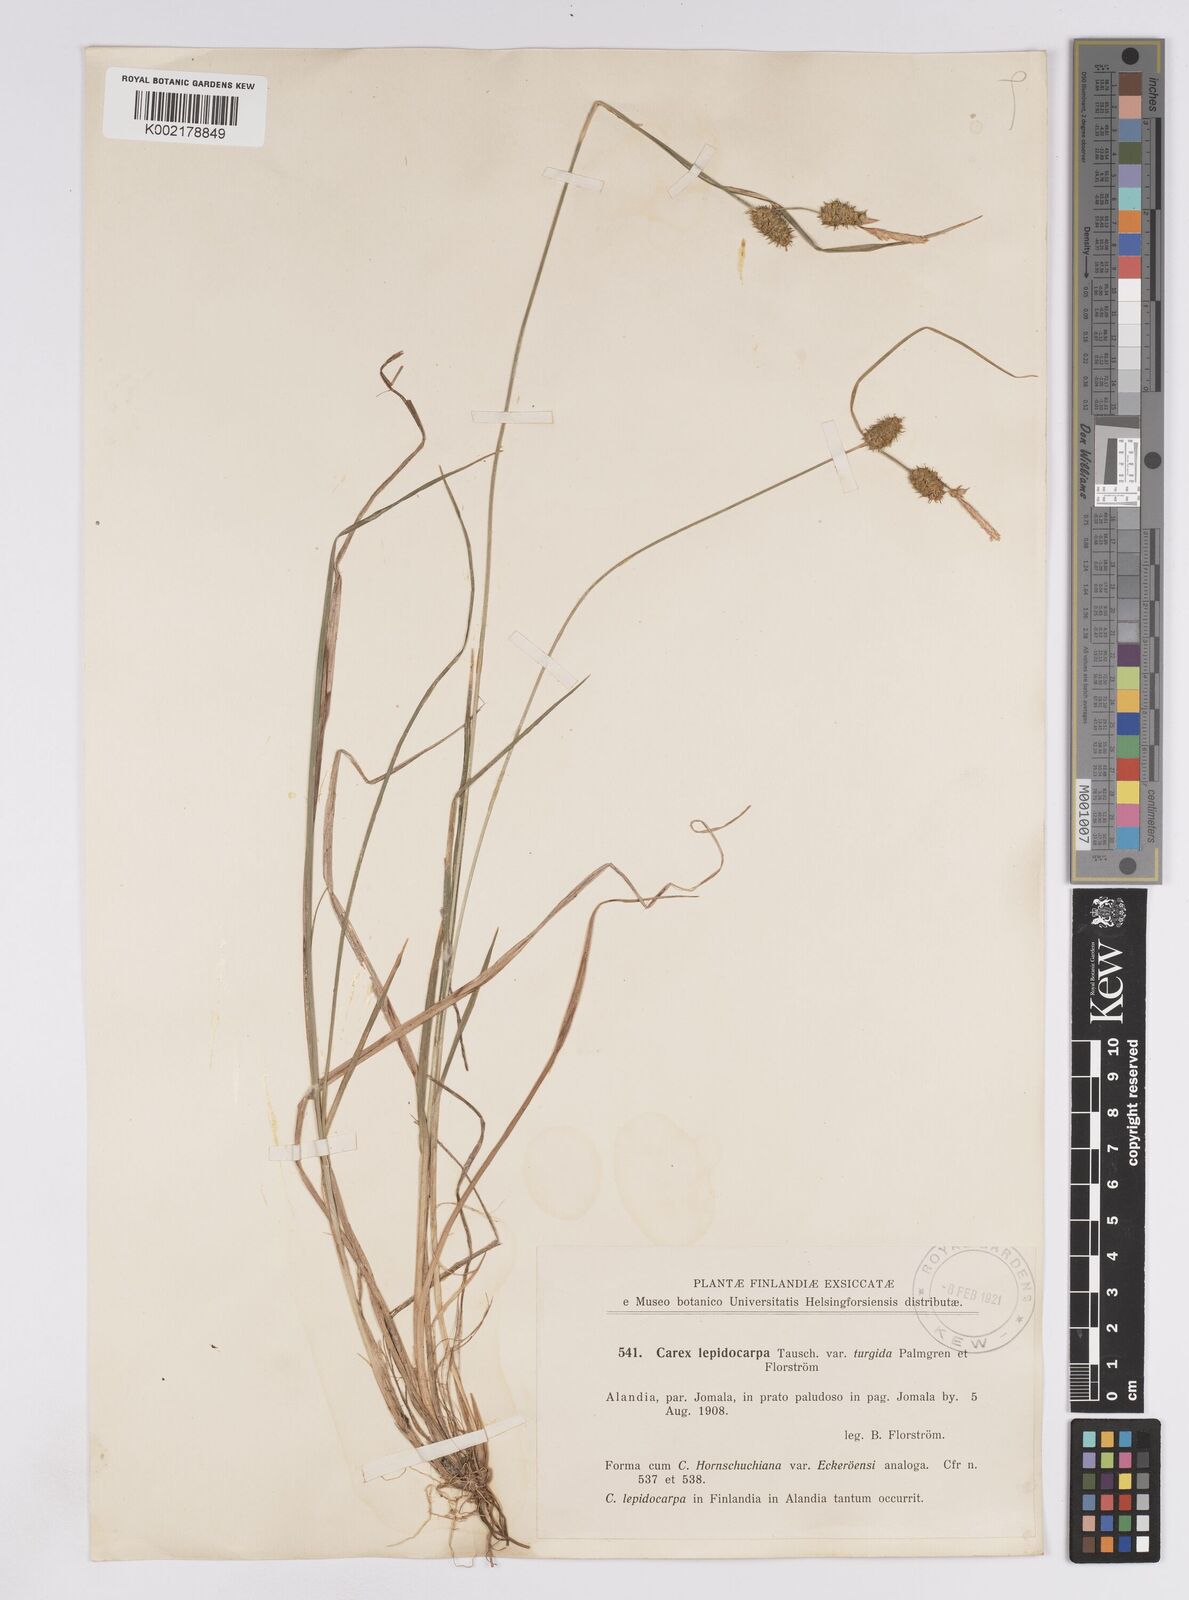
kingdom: Plantae
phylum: Tracheophyta
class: Liliopsida
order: Poales
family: Cyperaceae
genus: Carex
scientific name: Carex lepidocarpa
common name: Long-stalked yellow-sedge
